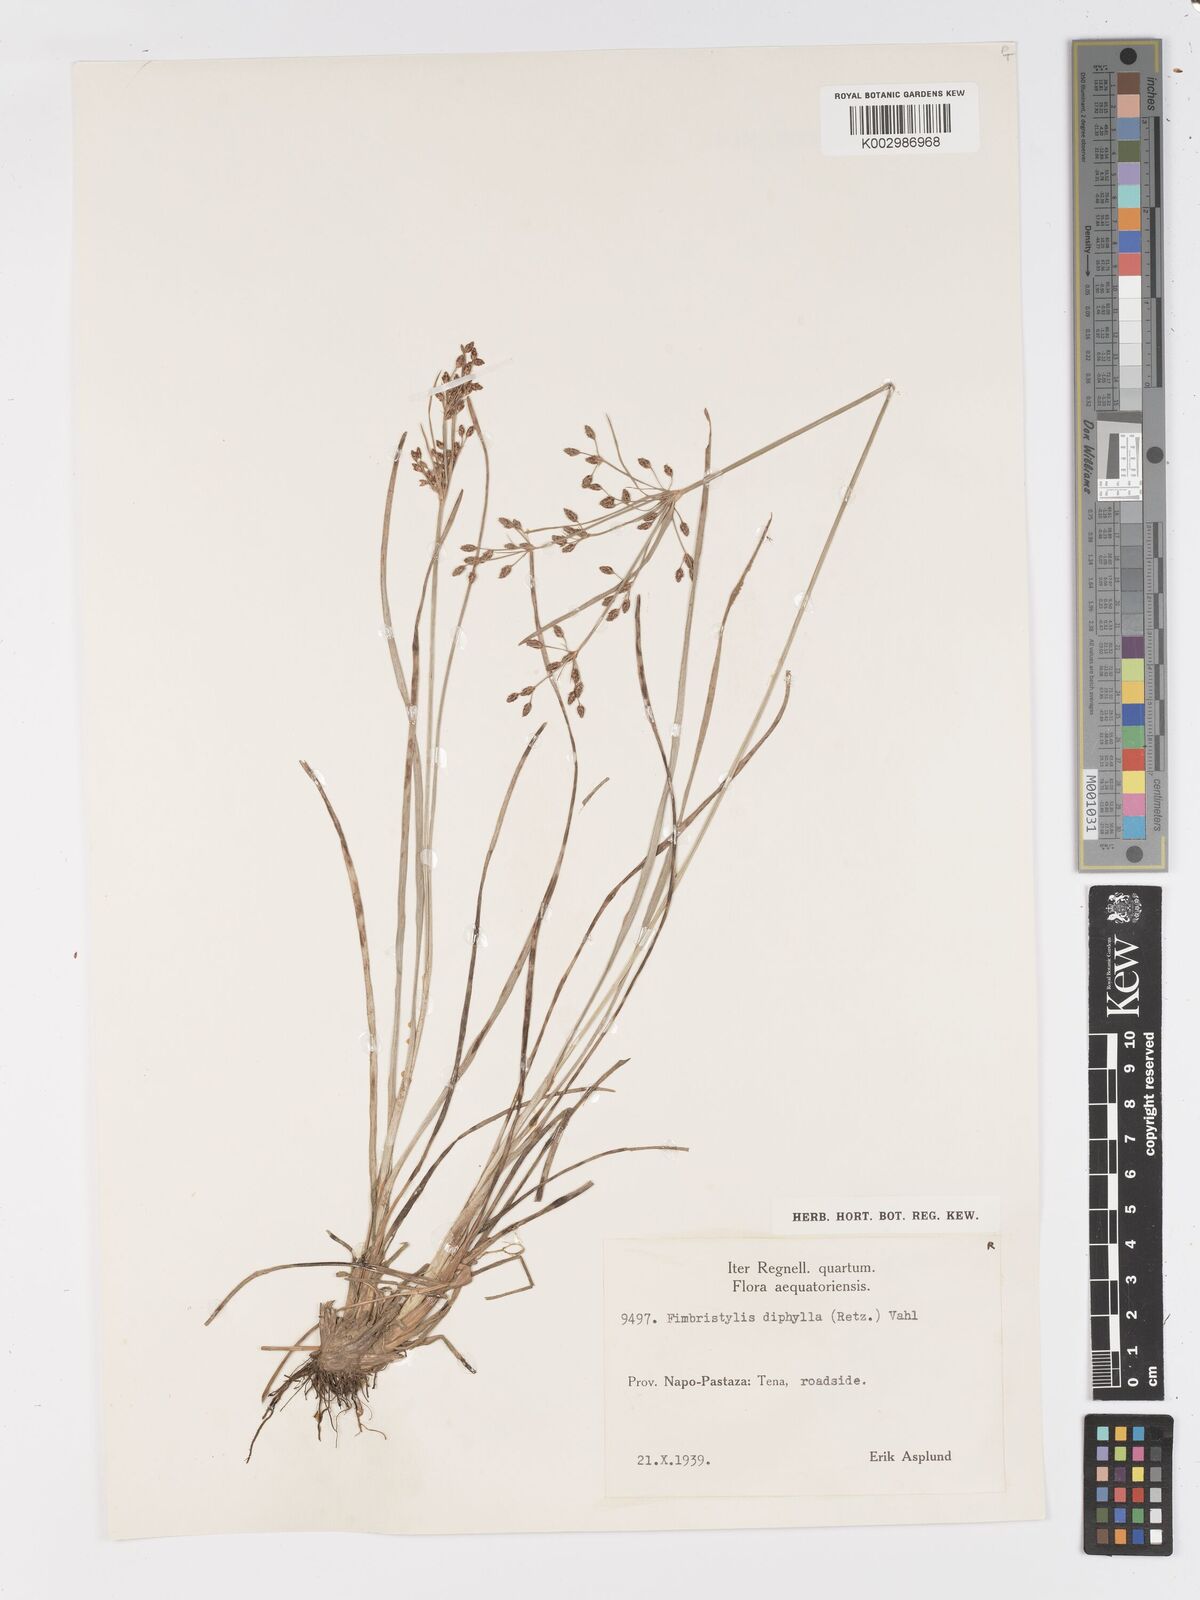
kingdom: Plantae
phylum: Tracheophyta
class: Liliopsida
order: Poales
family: Cyperaceae
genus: Fimbristylis
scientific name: Fimbristylis dichotoma
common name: Forked fimbry
